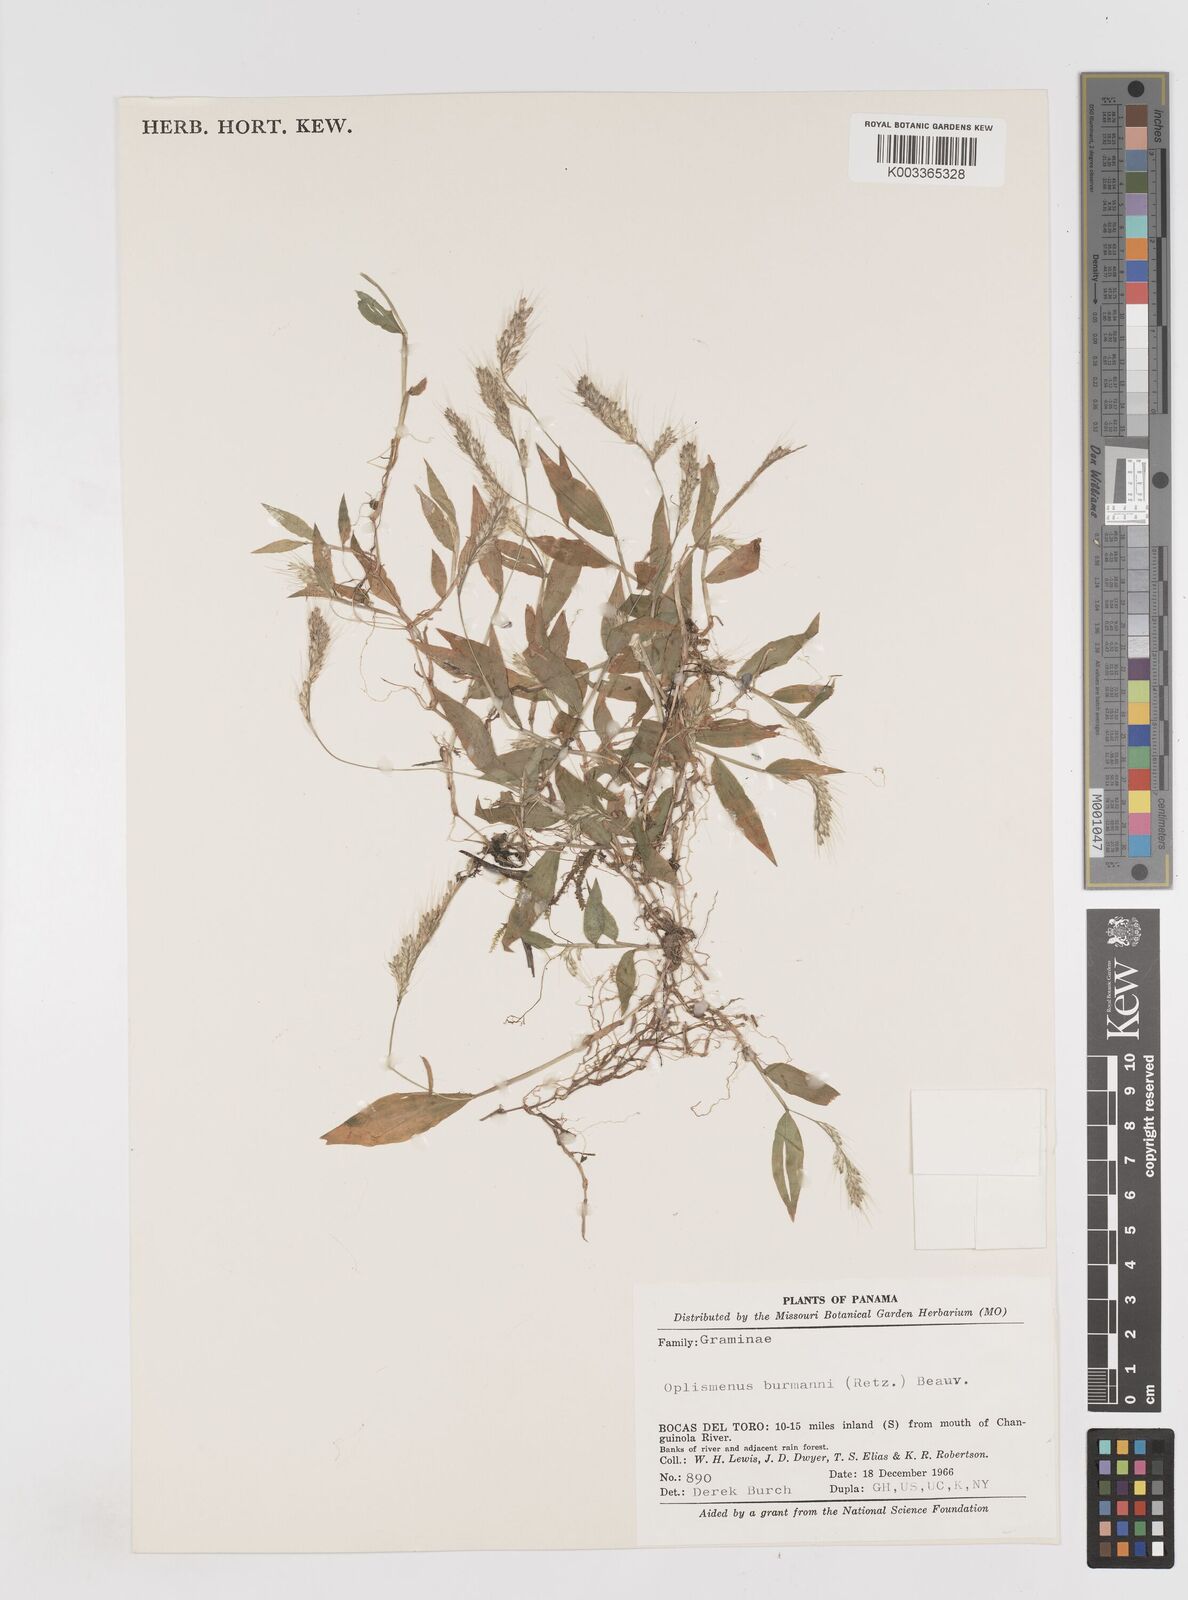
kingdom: Plantae
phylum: Tracheophyta
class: Liliopsida
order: Poales
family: Poaceae
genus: Oplismenus
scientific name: Oplismenus burmanni
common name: Burmann's basketgrass
